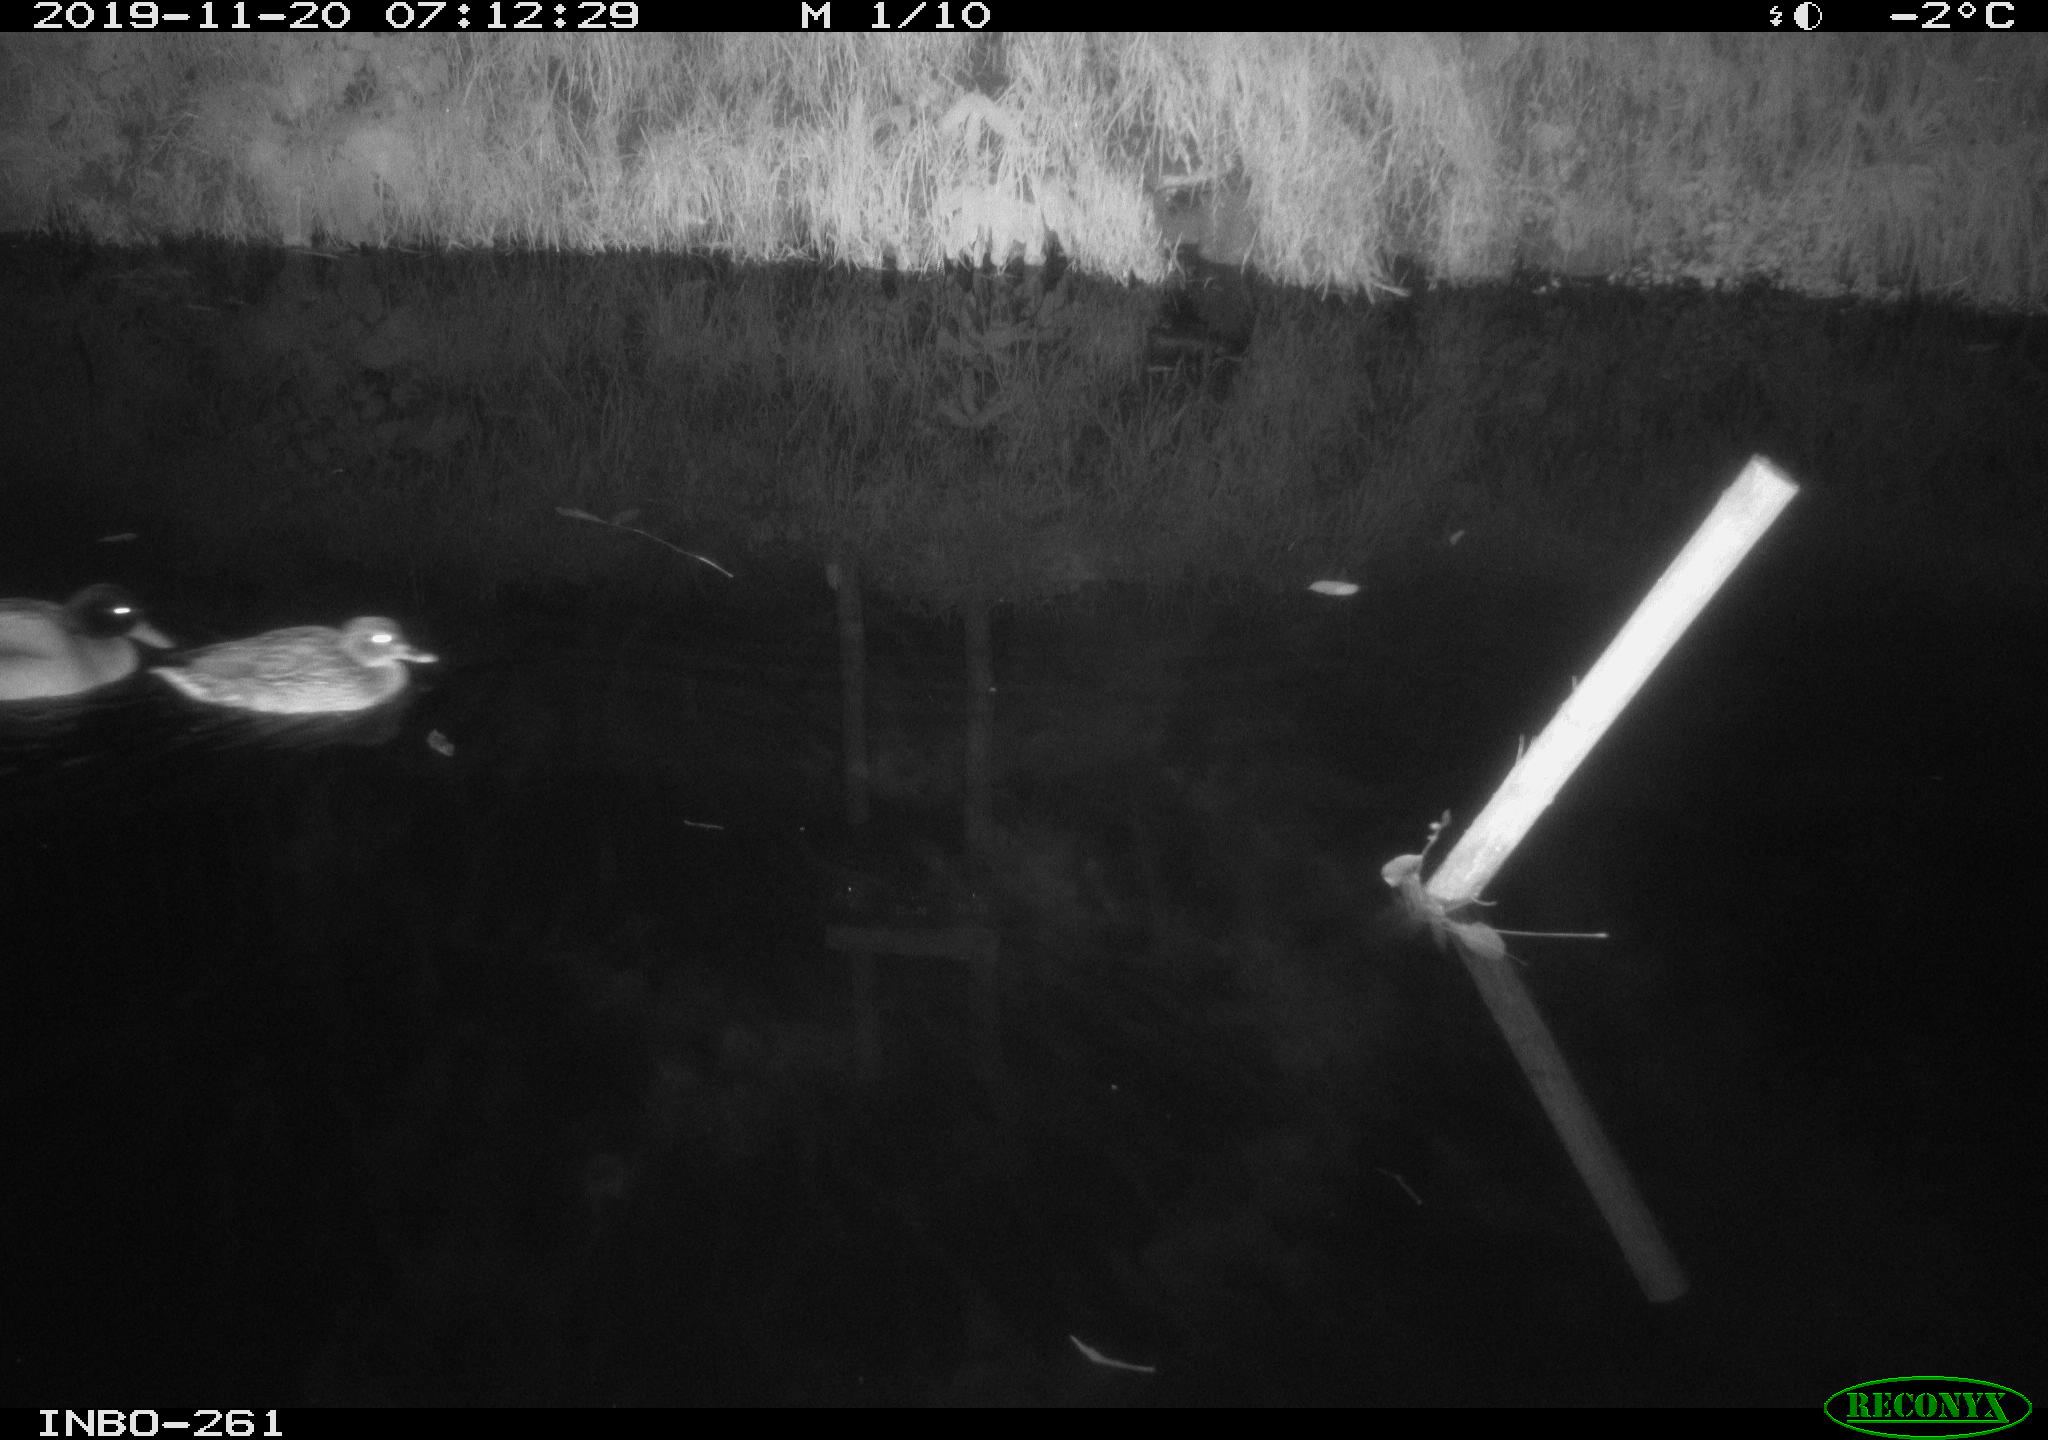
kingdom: Animalia
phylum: Chordata
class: Aves
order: Anseriformes
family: Anatidae
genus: Anas
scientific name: Anas platyrhynchos
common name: Mallard
